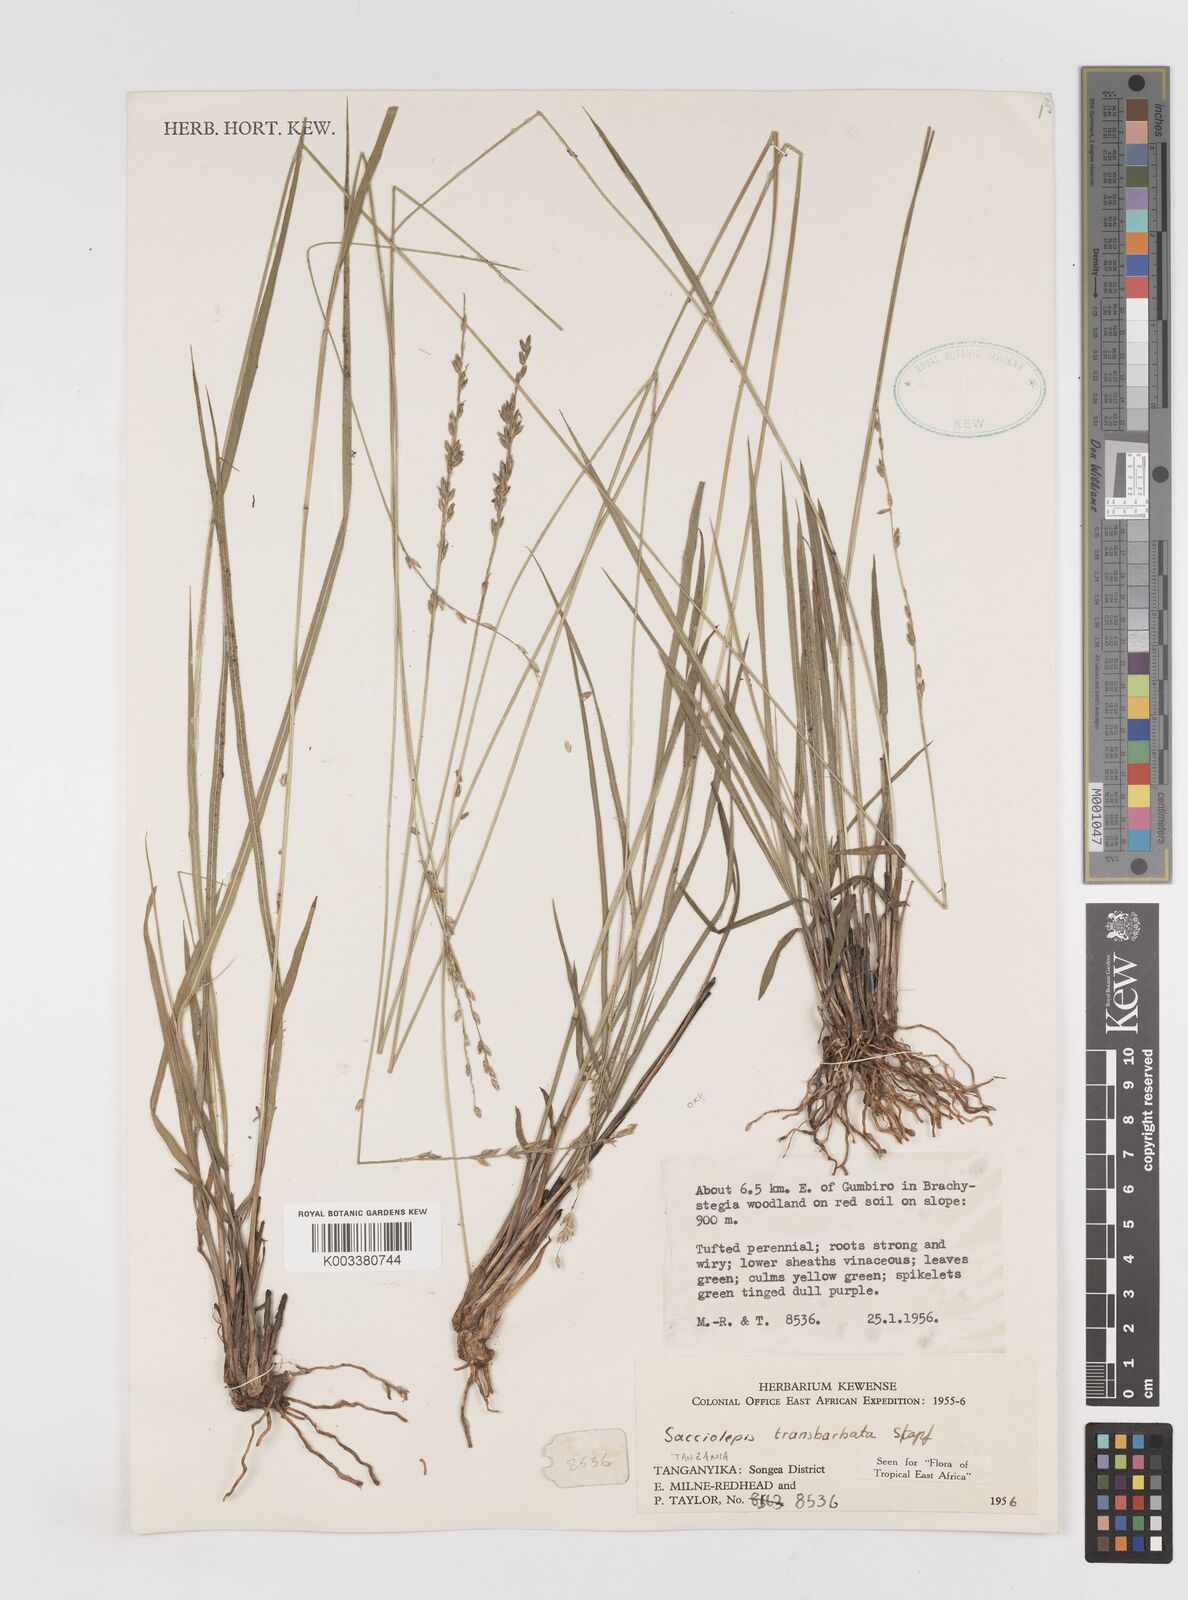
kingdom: Plantae
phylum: Tracheophyta
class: Liliopsida
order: Poales
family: Poaceae
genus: Sacciolepis
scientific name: Sacciolepis transbarbata
